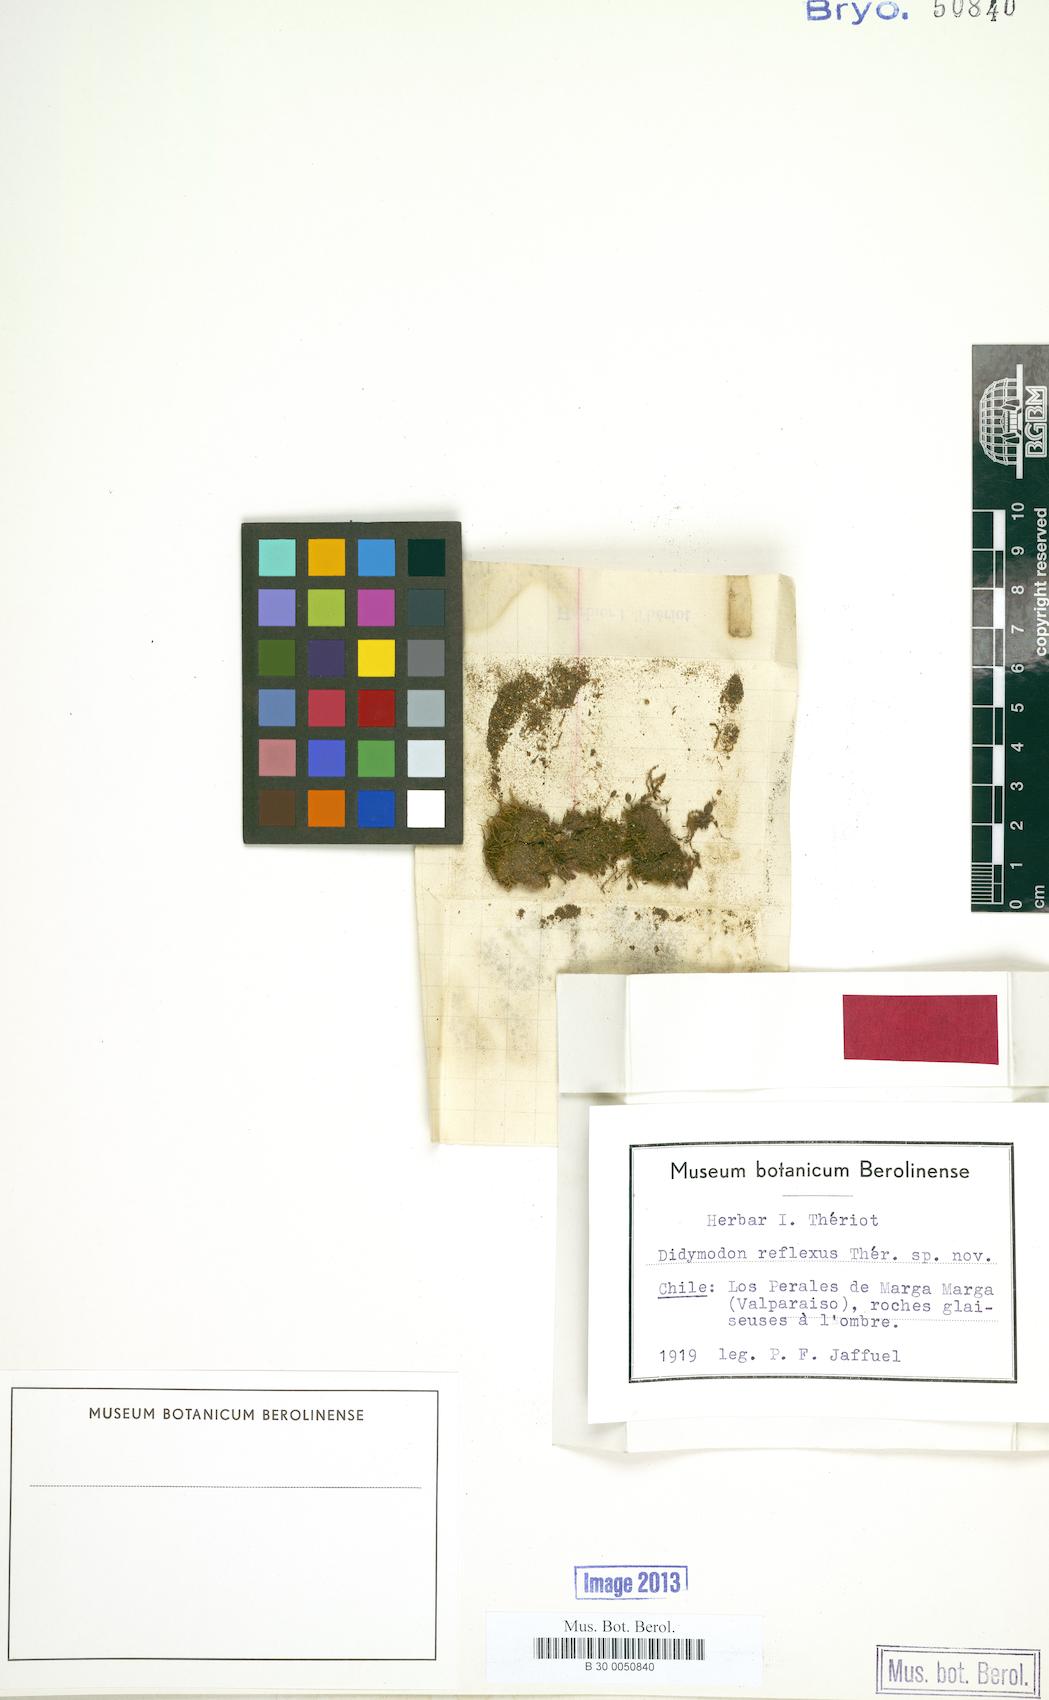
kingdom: Plantae
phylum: Bryophyta
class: Bryopsida
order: Pottiales
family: Pottiaceae
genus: Didymodon
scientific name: Didymodon reflexus
